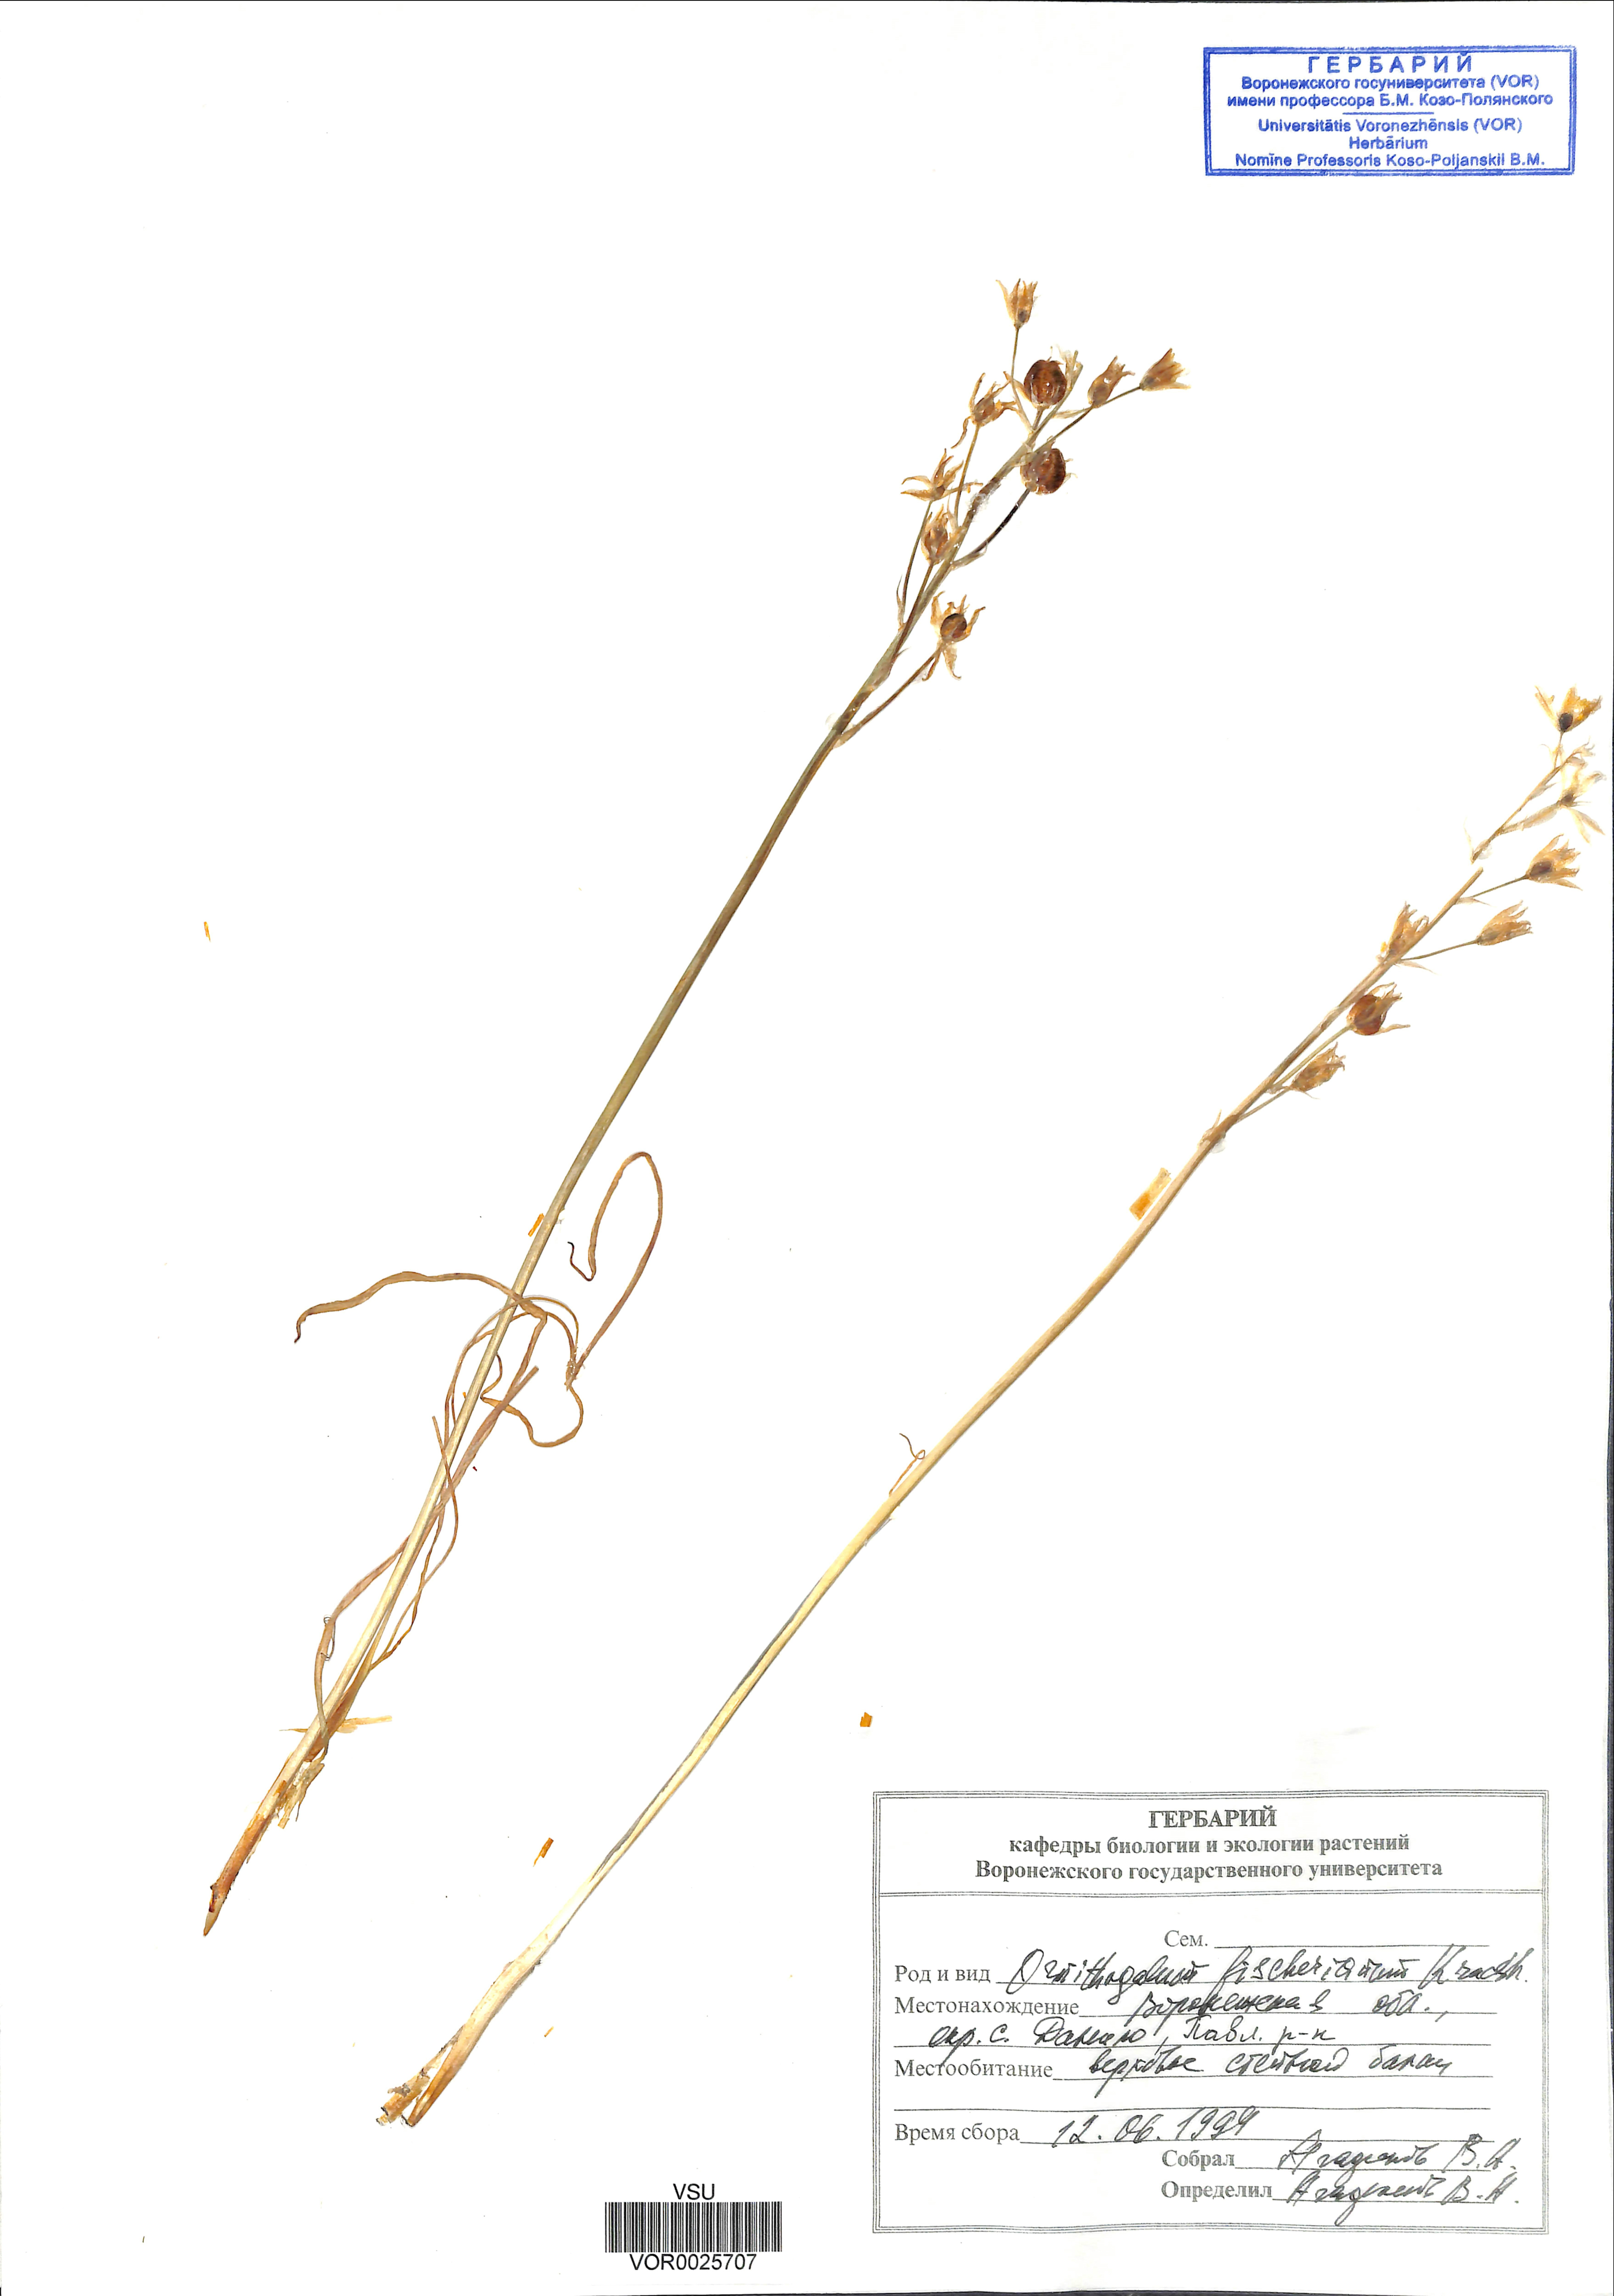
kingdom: Plantae
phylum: Tracheophyta
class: Liliopsida
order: Asparagales
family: Asparagaceae
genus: Ornithogalum
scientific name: Ornithogalum fischerianum
